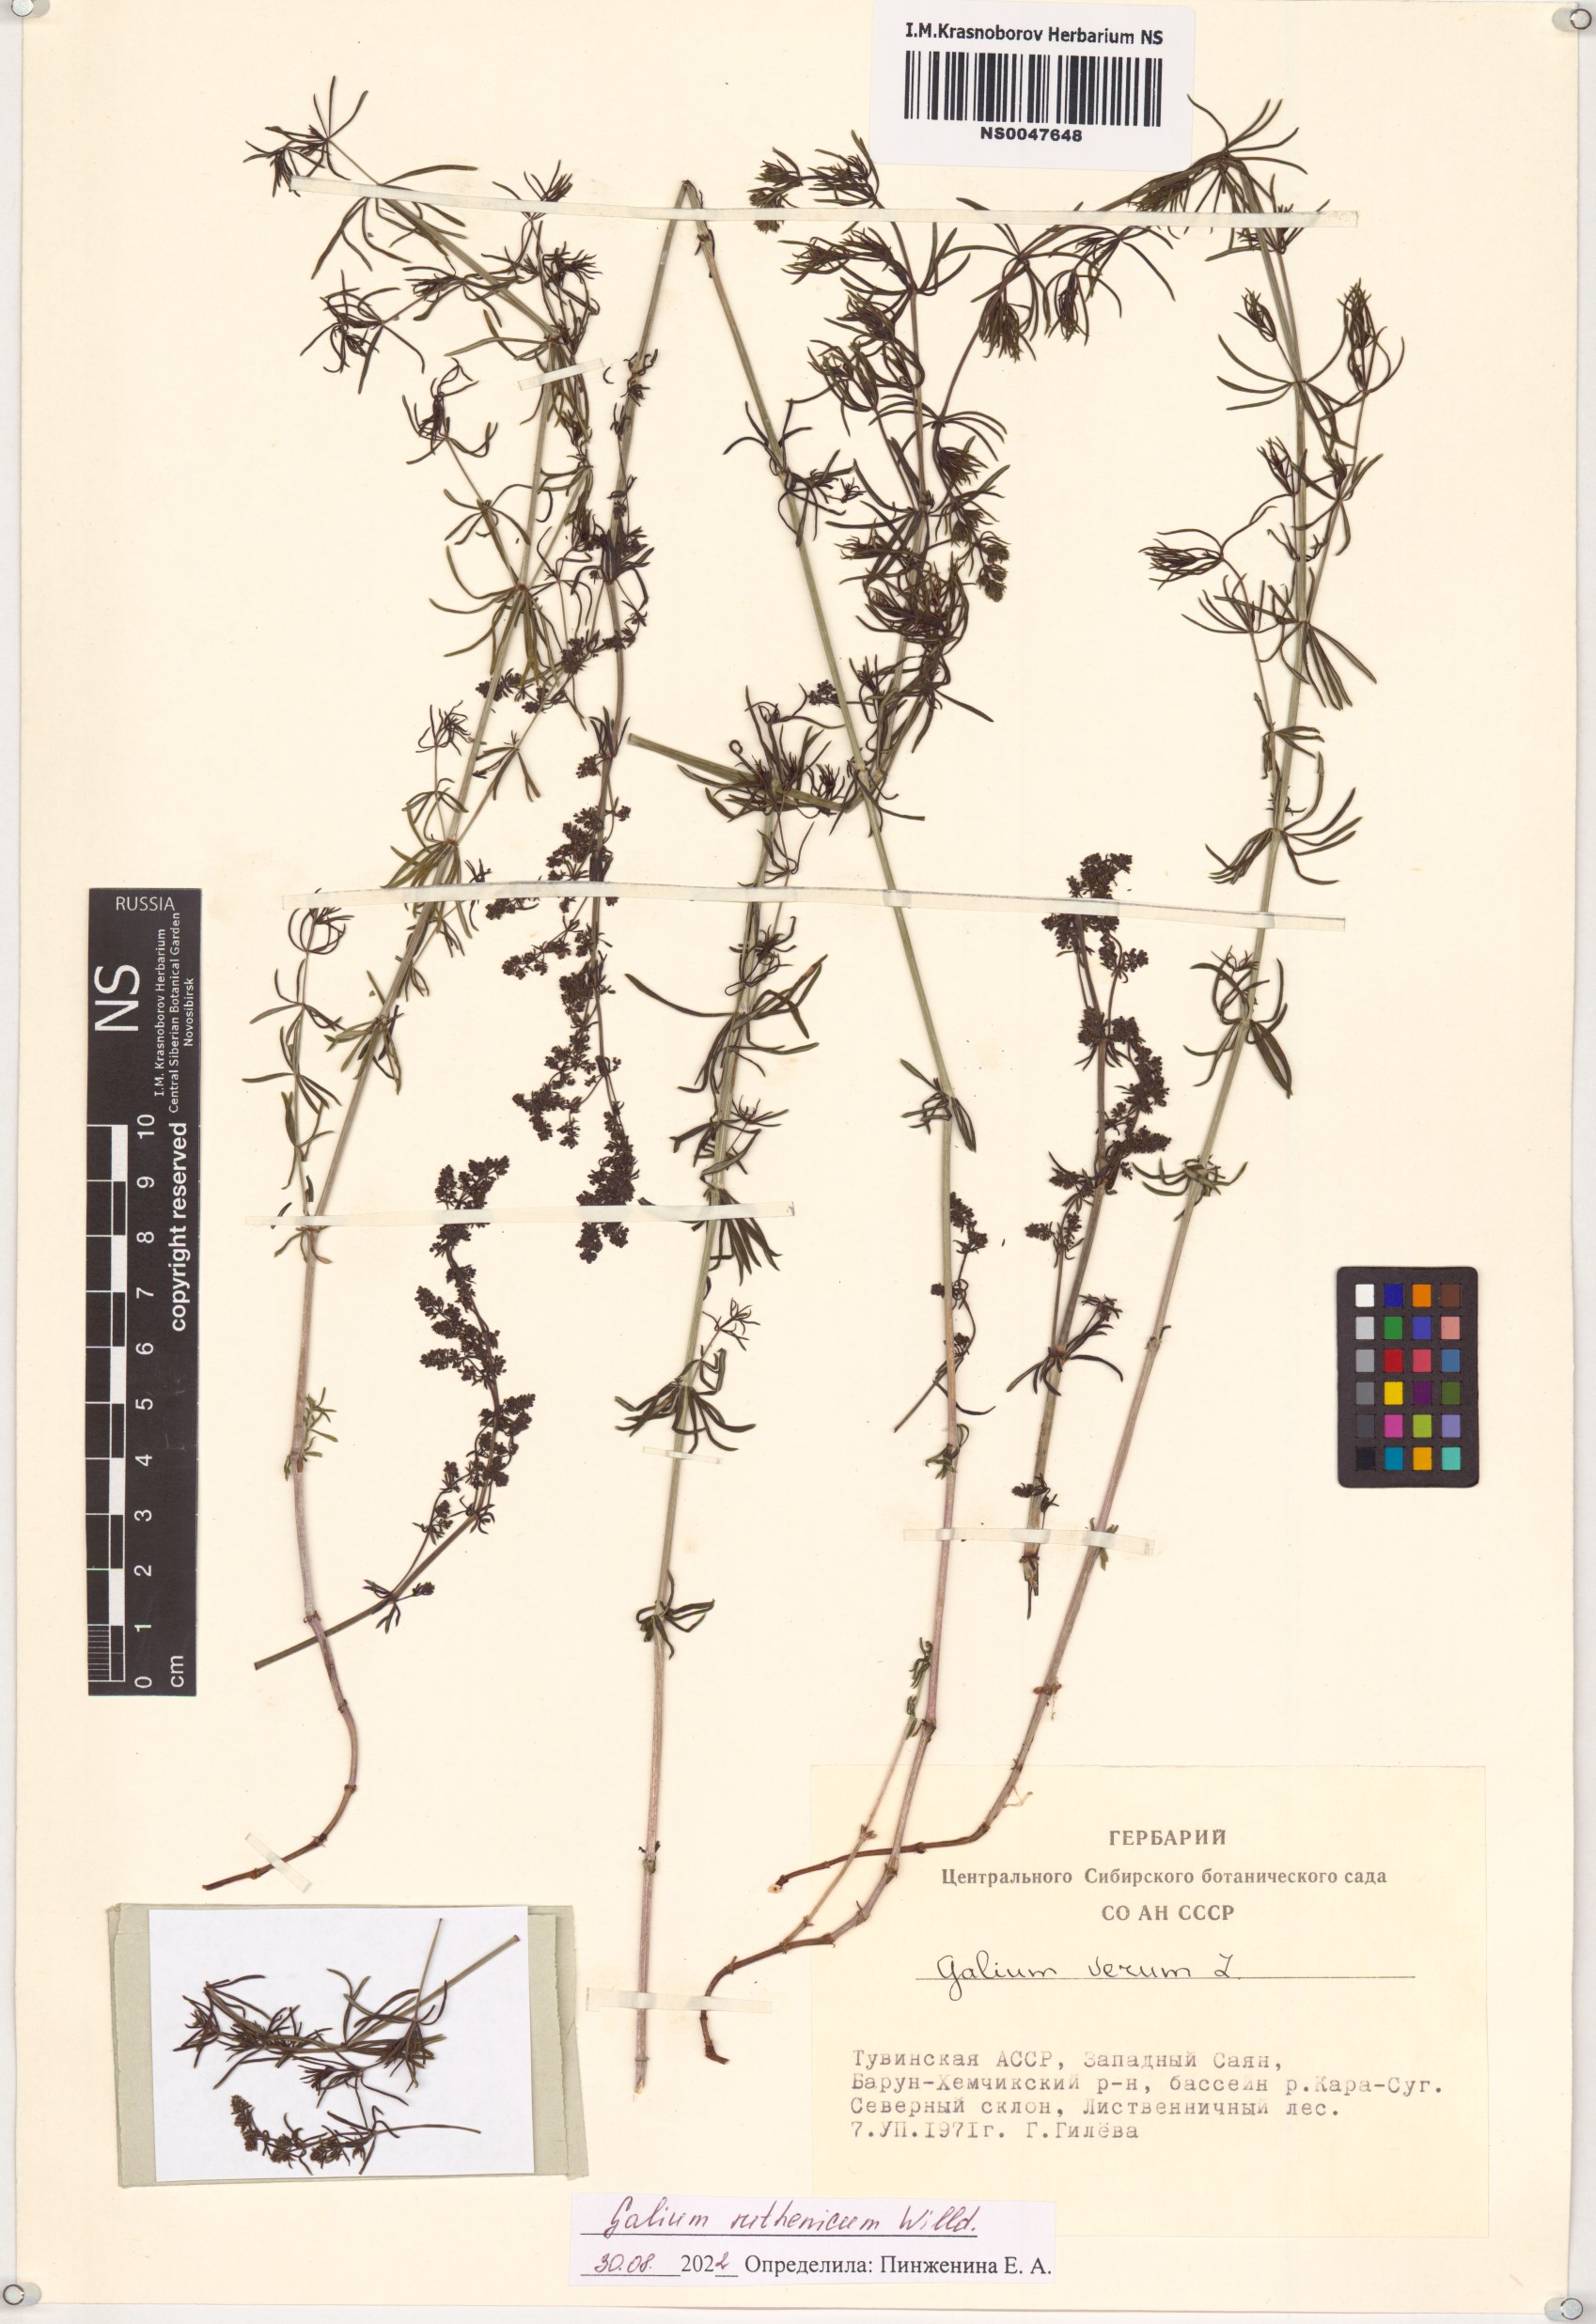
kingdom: Plantae
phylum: Tracheophyta
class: Magnoliopsida
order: Gentianales
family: Rubiaceae
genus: Galium
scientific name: Galium verum
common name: Lady's bedstraw
